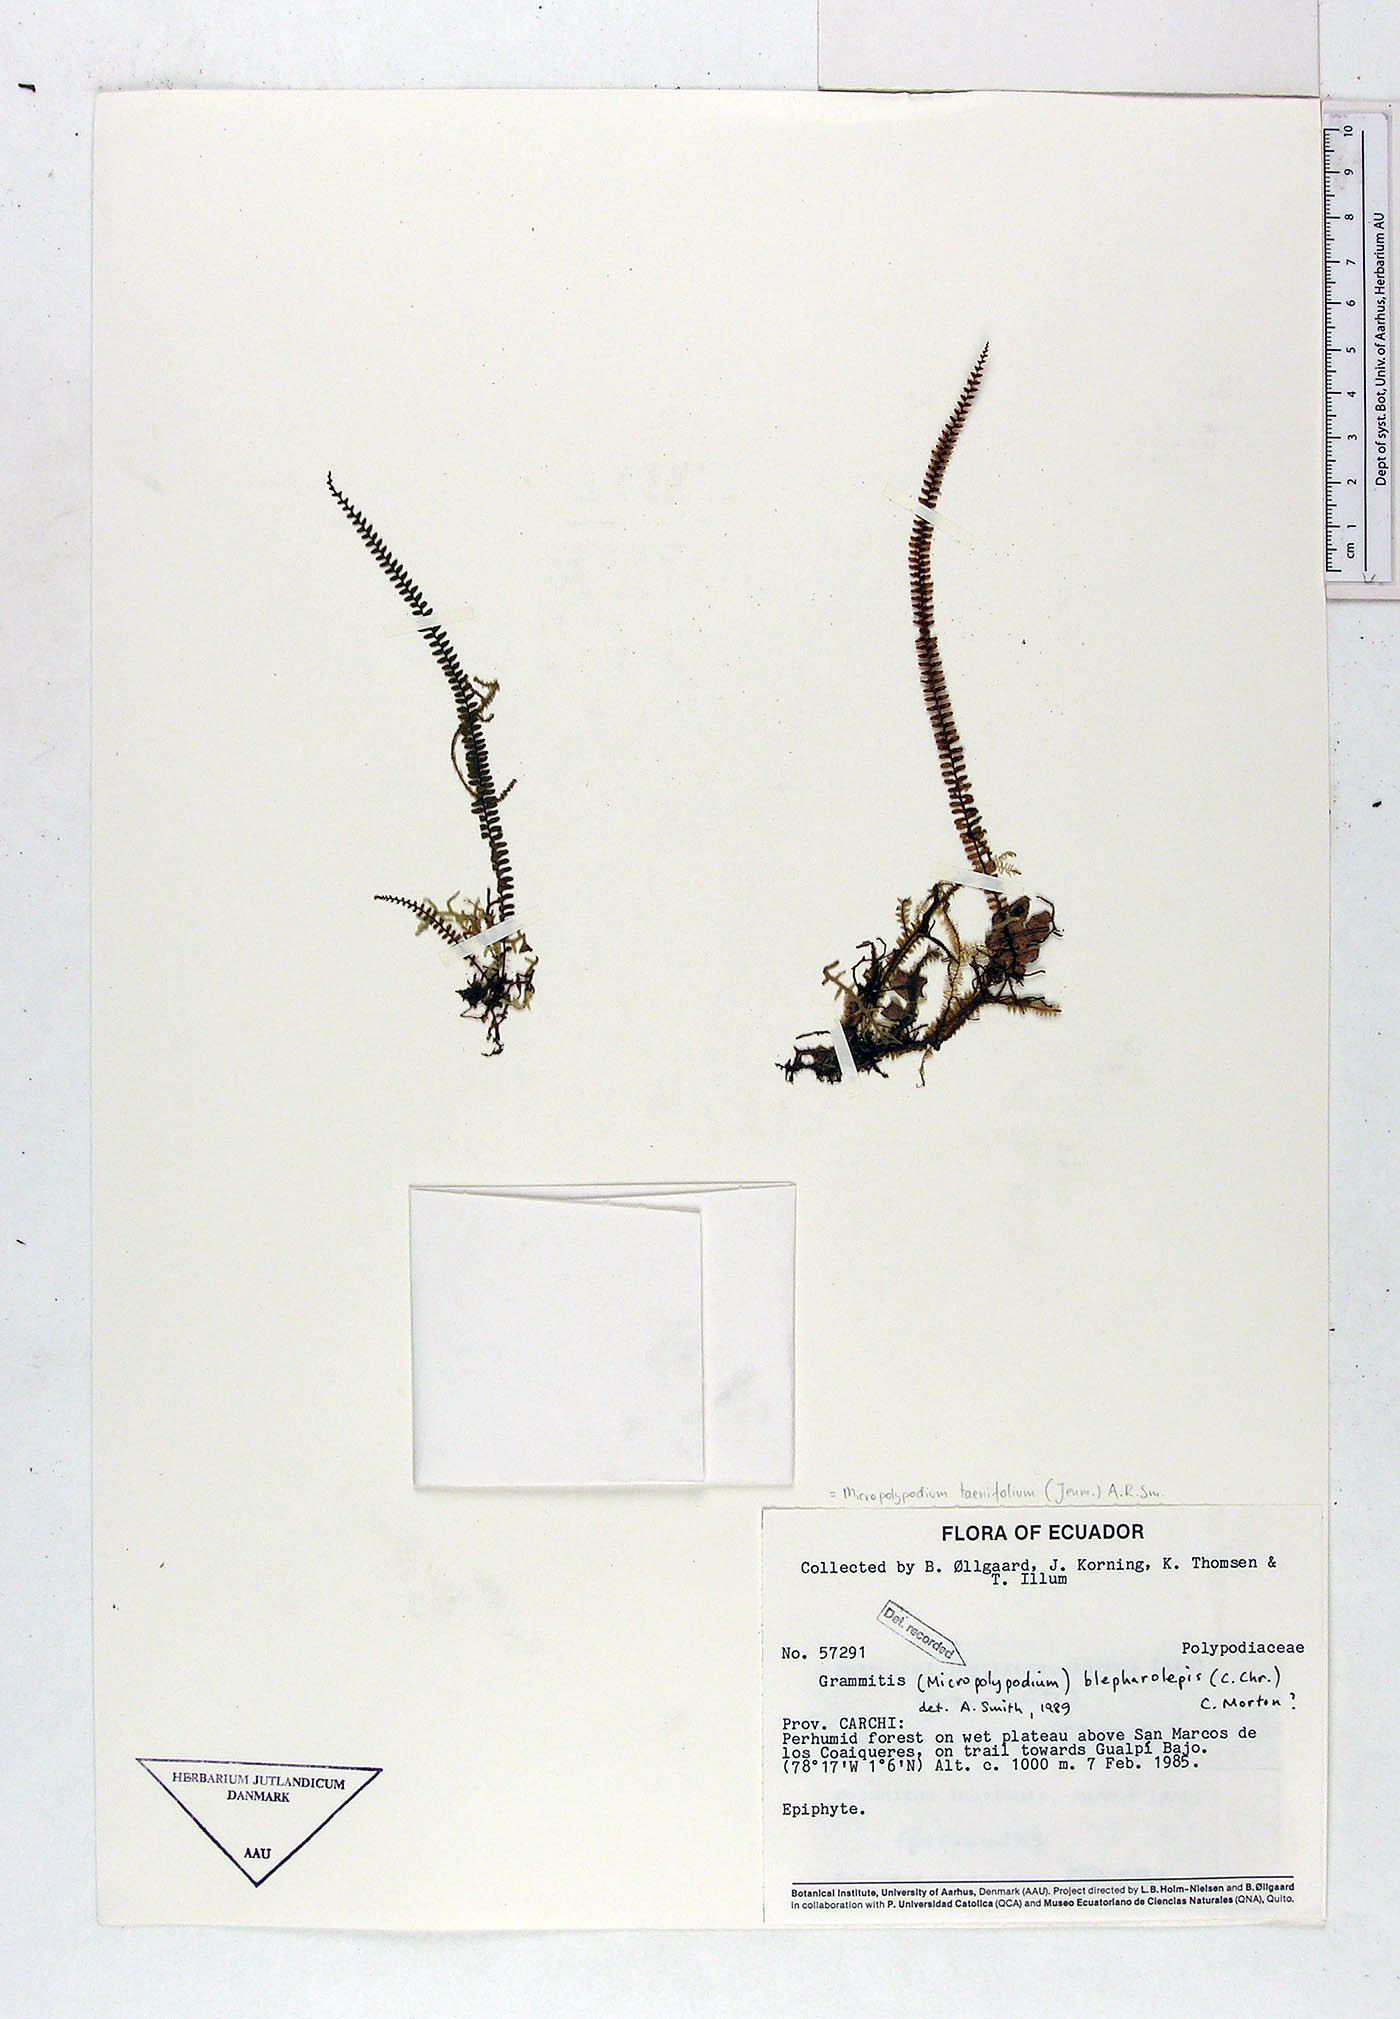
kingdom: Plantae
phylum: Tracheophyta
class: Polypodiopsida
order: Polypodiales
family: Polypodiaceae
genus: Moranopteris
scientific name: Moranopteris taenifolia
